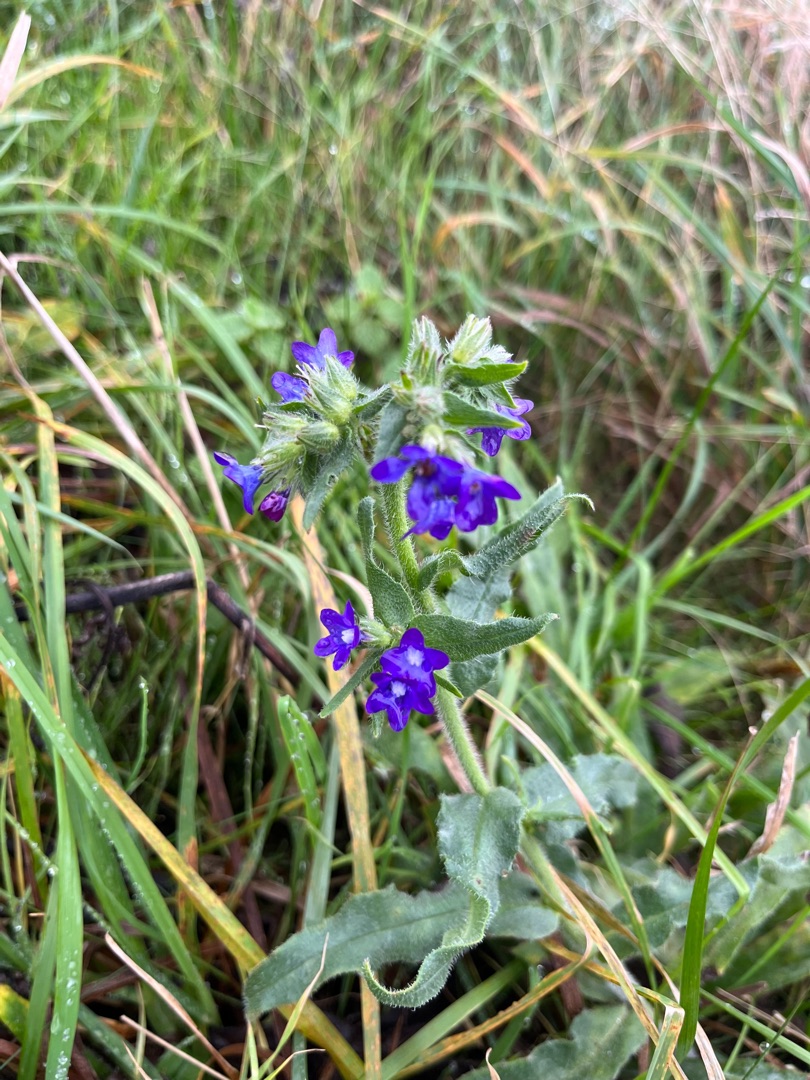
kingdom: Plantae
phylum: Tracheophyta
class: Magnoliopsida
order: Boraginales
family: Boraginaceae
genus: Anchusa
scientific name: Anchusa officinalis
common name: Læge-oksetunge
